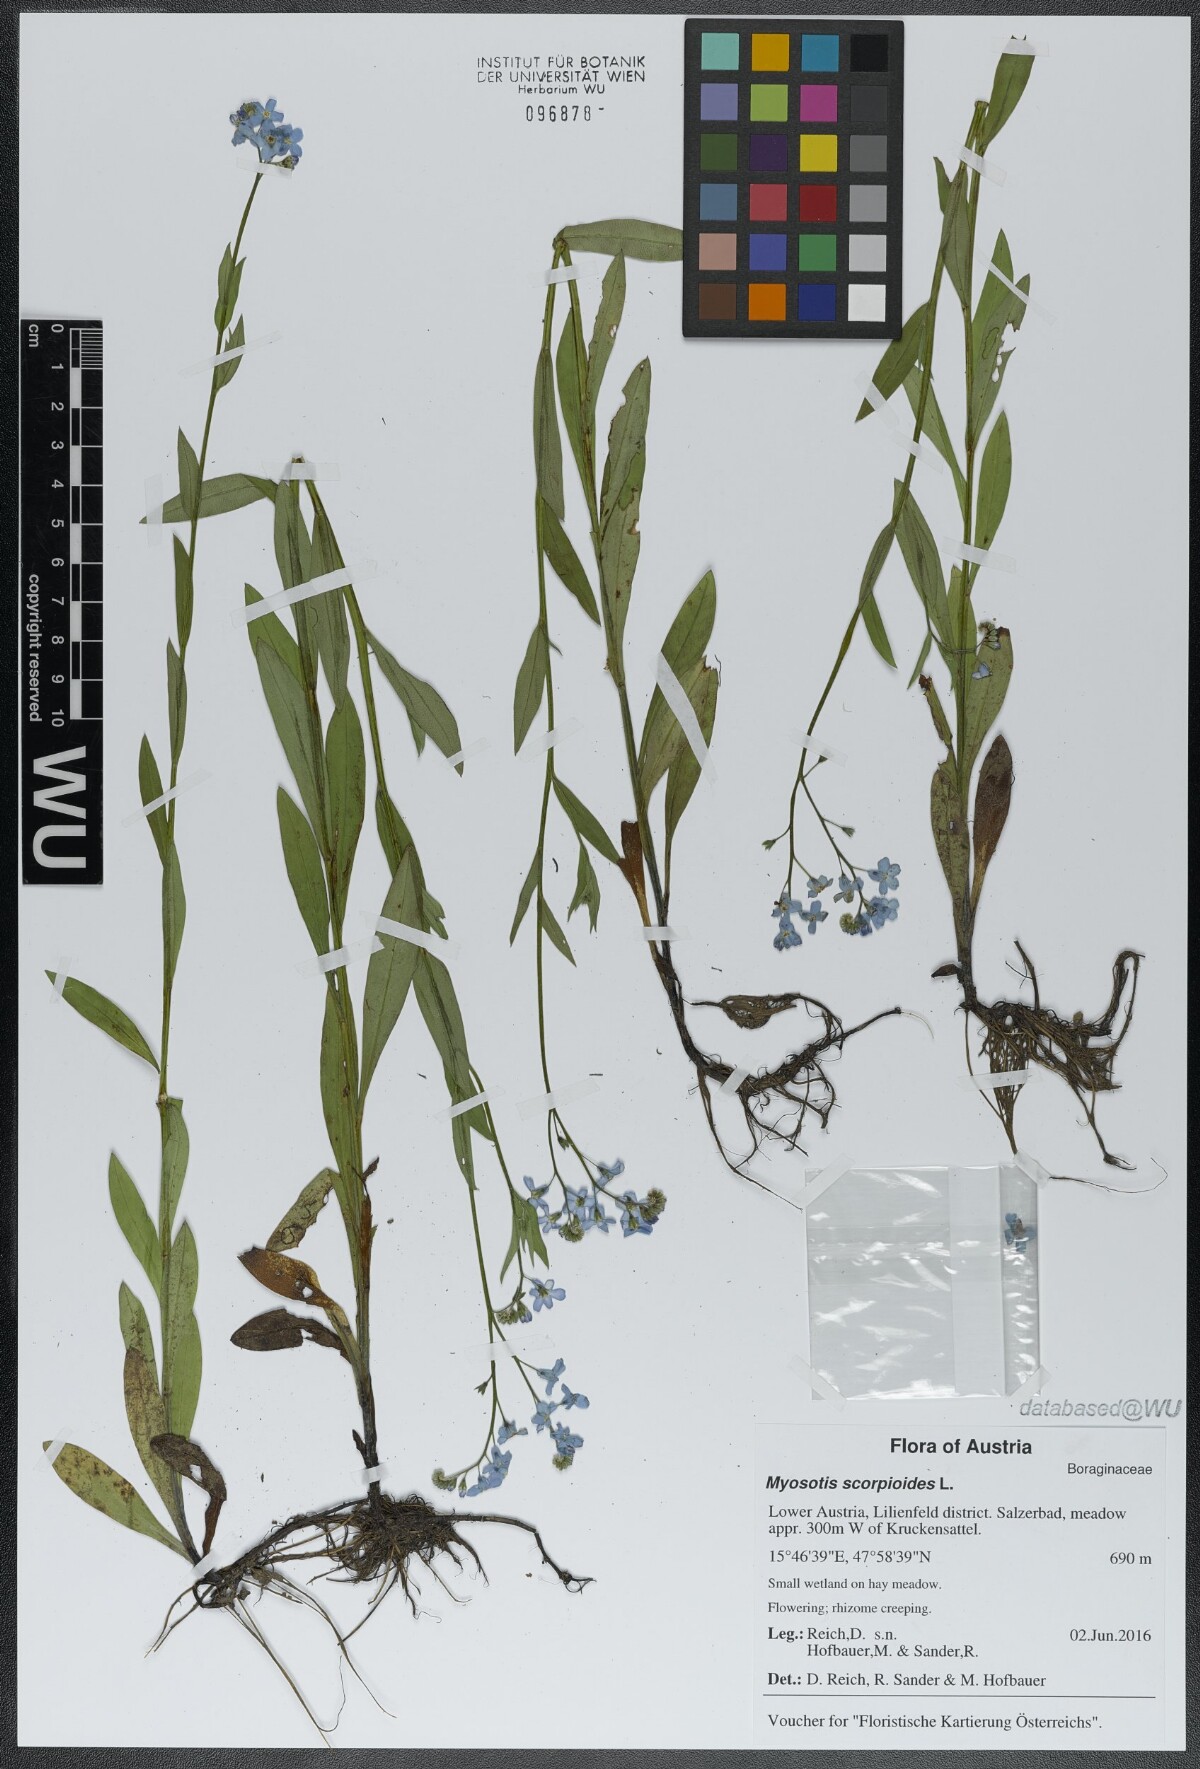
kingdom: Plantae
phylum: Tracheophyta
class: Magnoliopsida
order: Boraginales
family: Boraginaceae
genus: Myosotis
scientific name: Myosotis scorpioides
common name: Water forget-me-not
